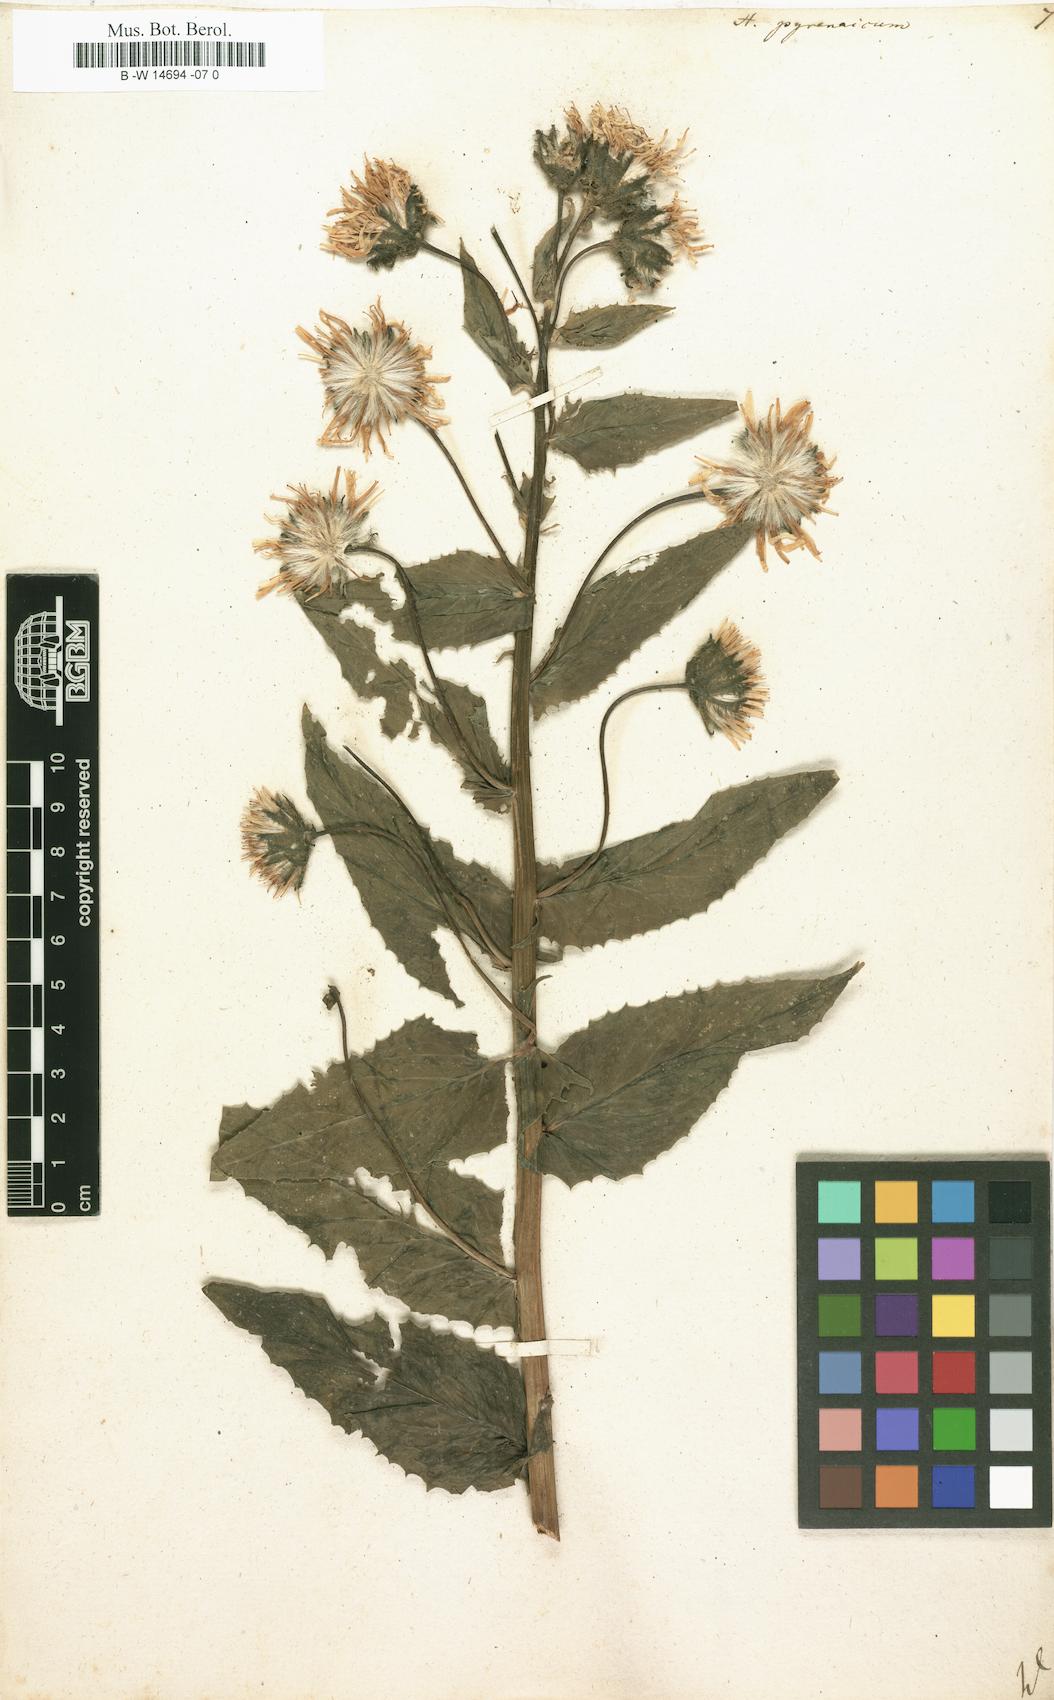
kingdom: Plantae
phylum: Tracheophyta
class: Magnoliopsida
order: Asterales
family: Asteraceae
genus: Hieracium
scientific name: Hieracium pyrenaicum
